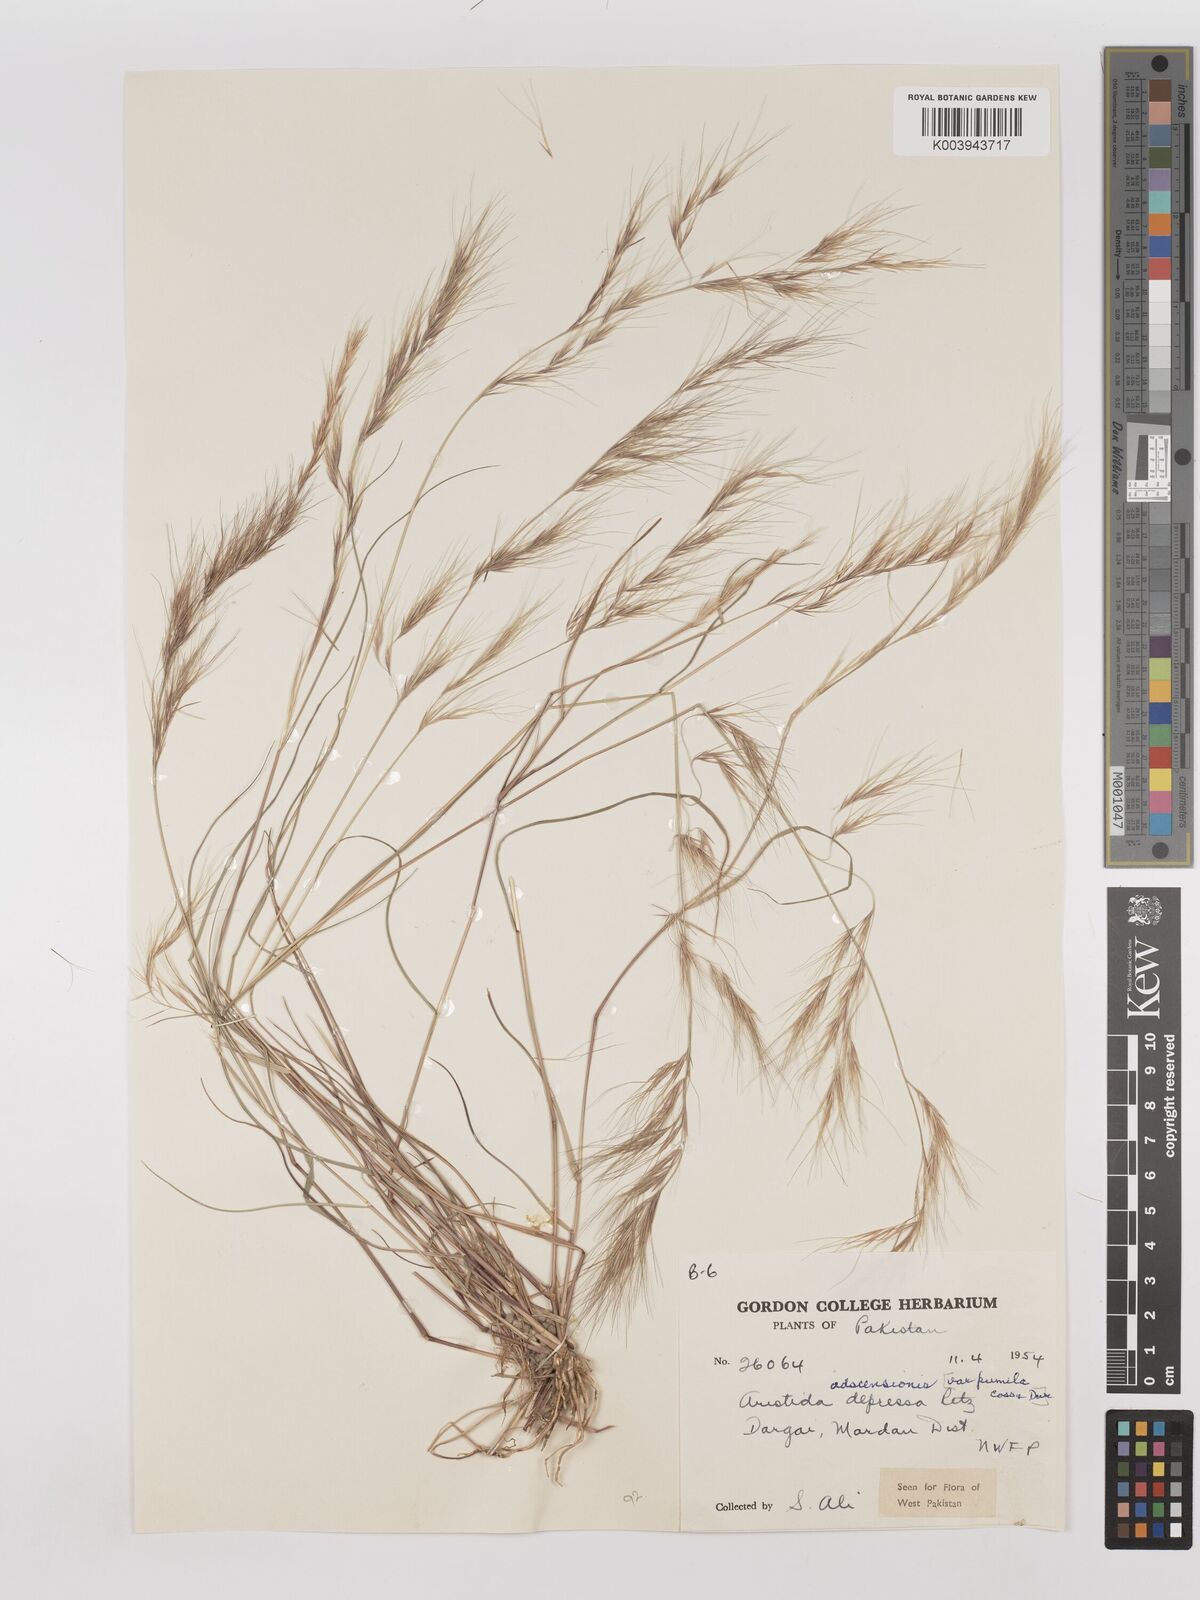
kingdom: Plantae
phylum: Tracheophyta
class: Liliopsida
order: Poales
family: Poaceae
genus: Aristida
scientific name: Aristida adscensionis
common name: Sixweeks threeawn
